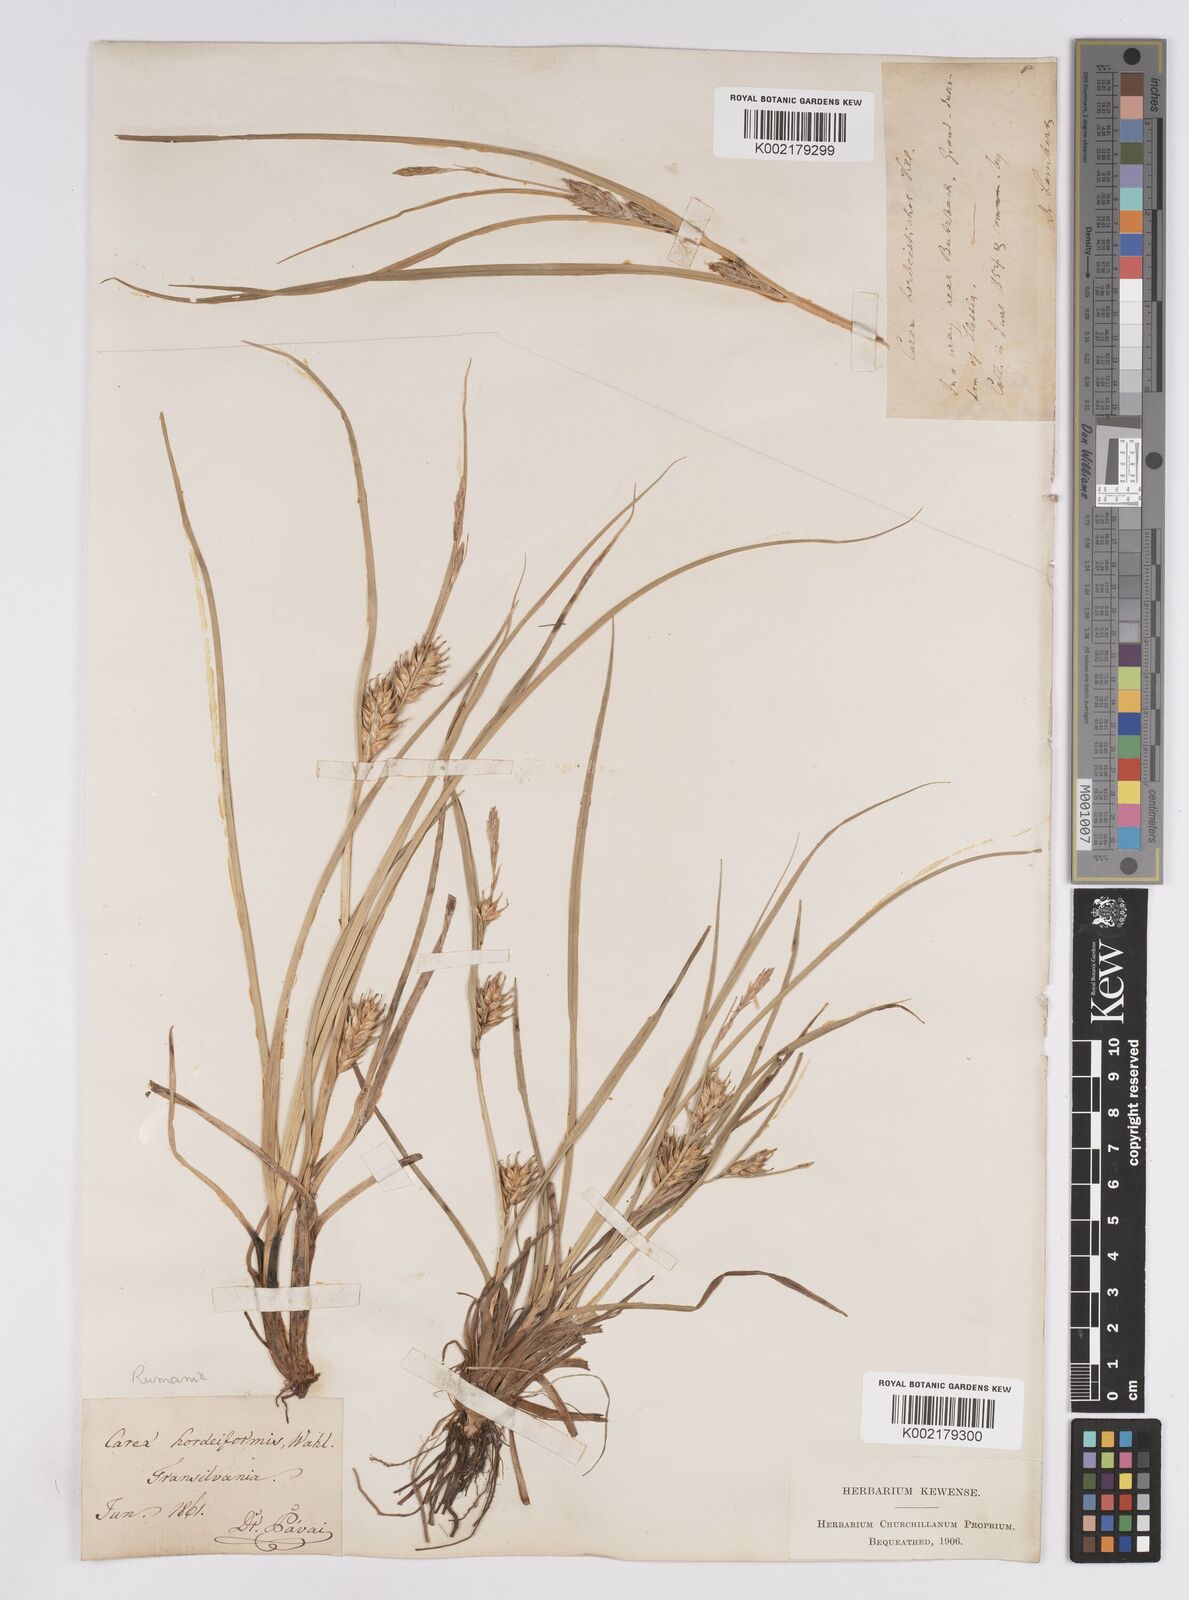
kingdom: Plantae
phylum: Tracheophyta
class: Liliopsida
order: Poales
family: Cyperaceae
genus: Carex
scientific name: Carex hordeistichos
